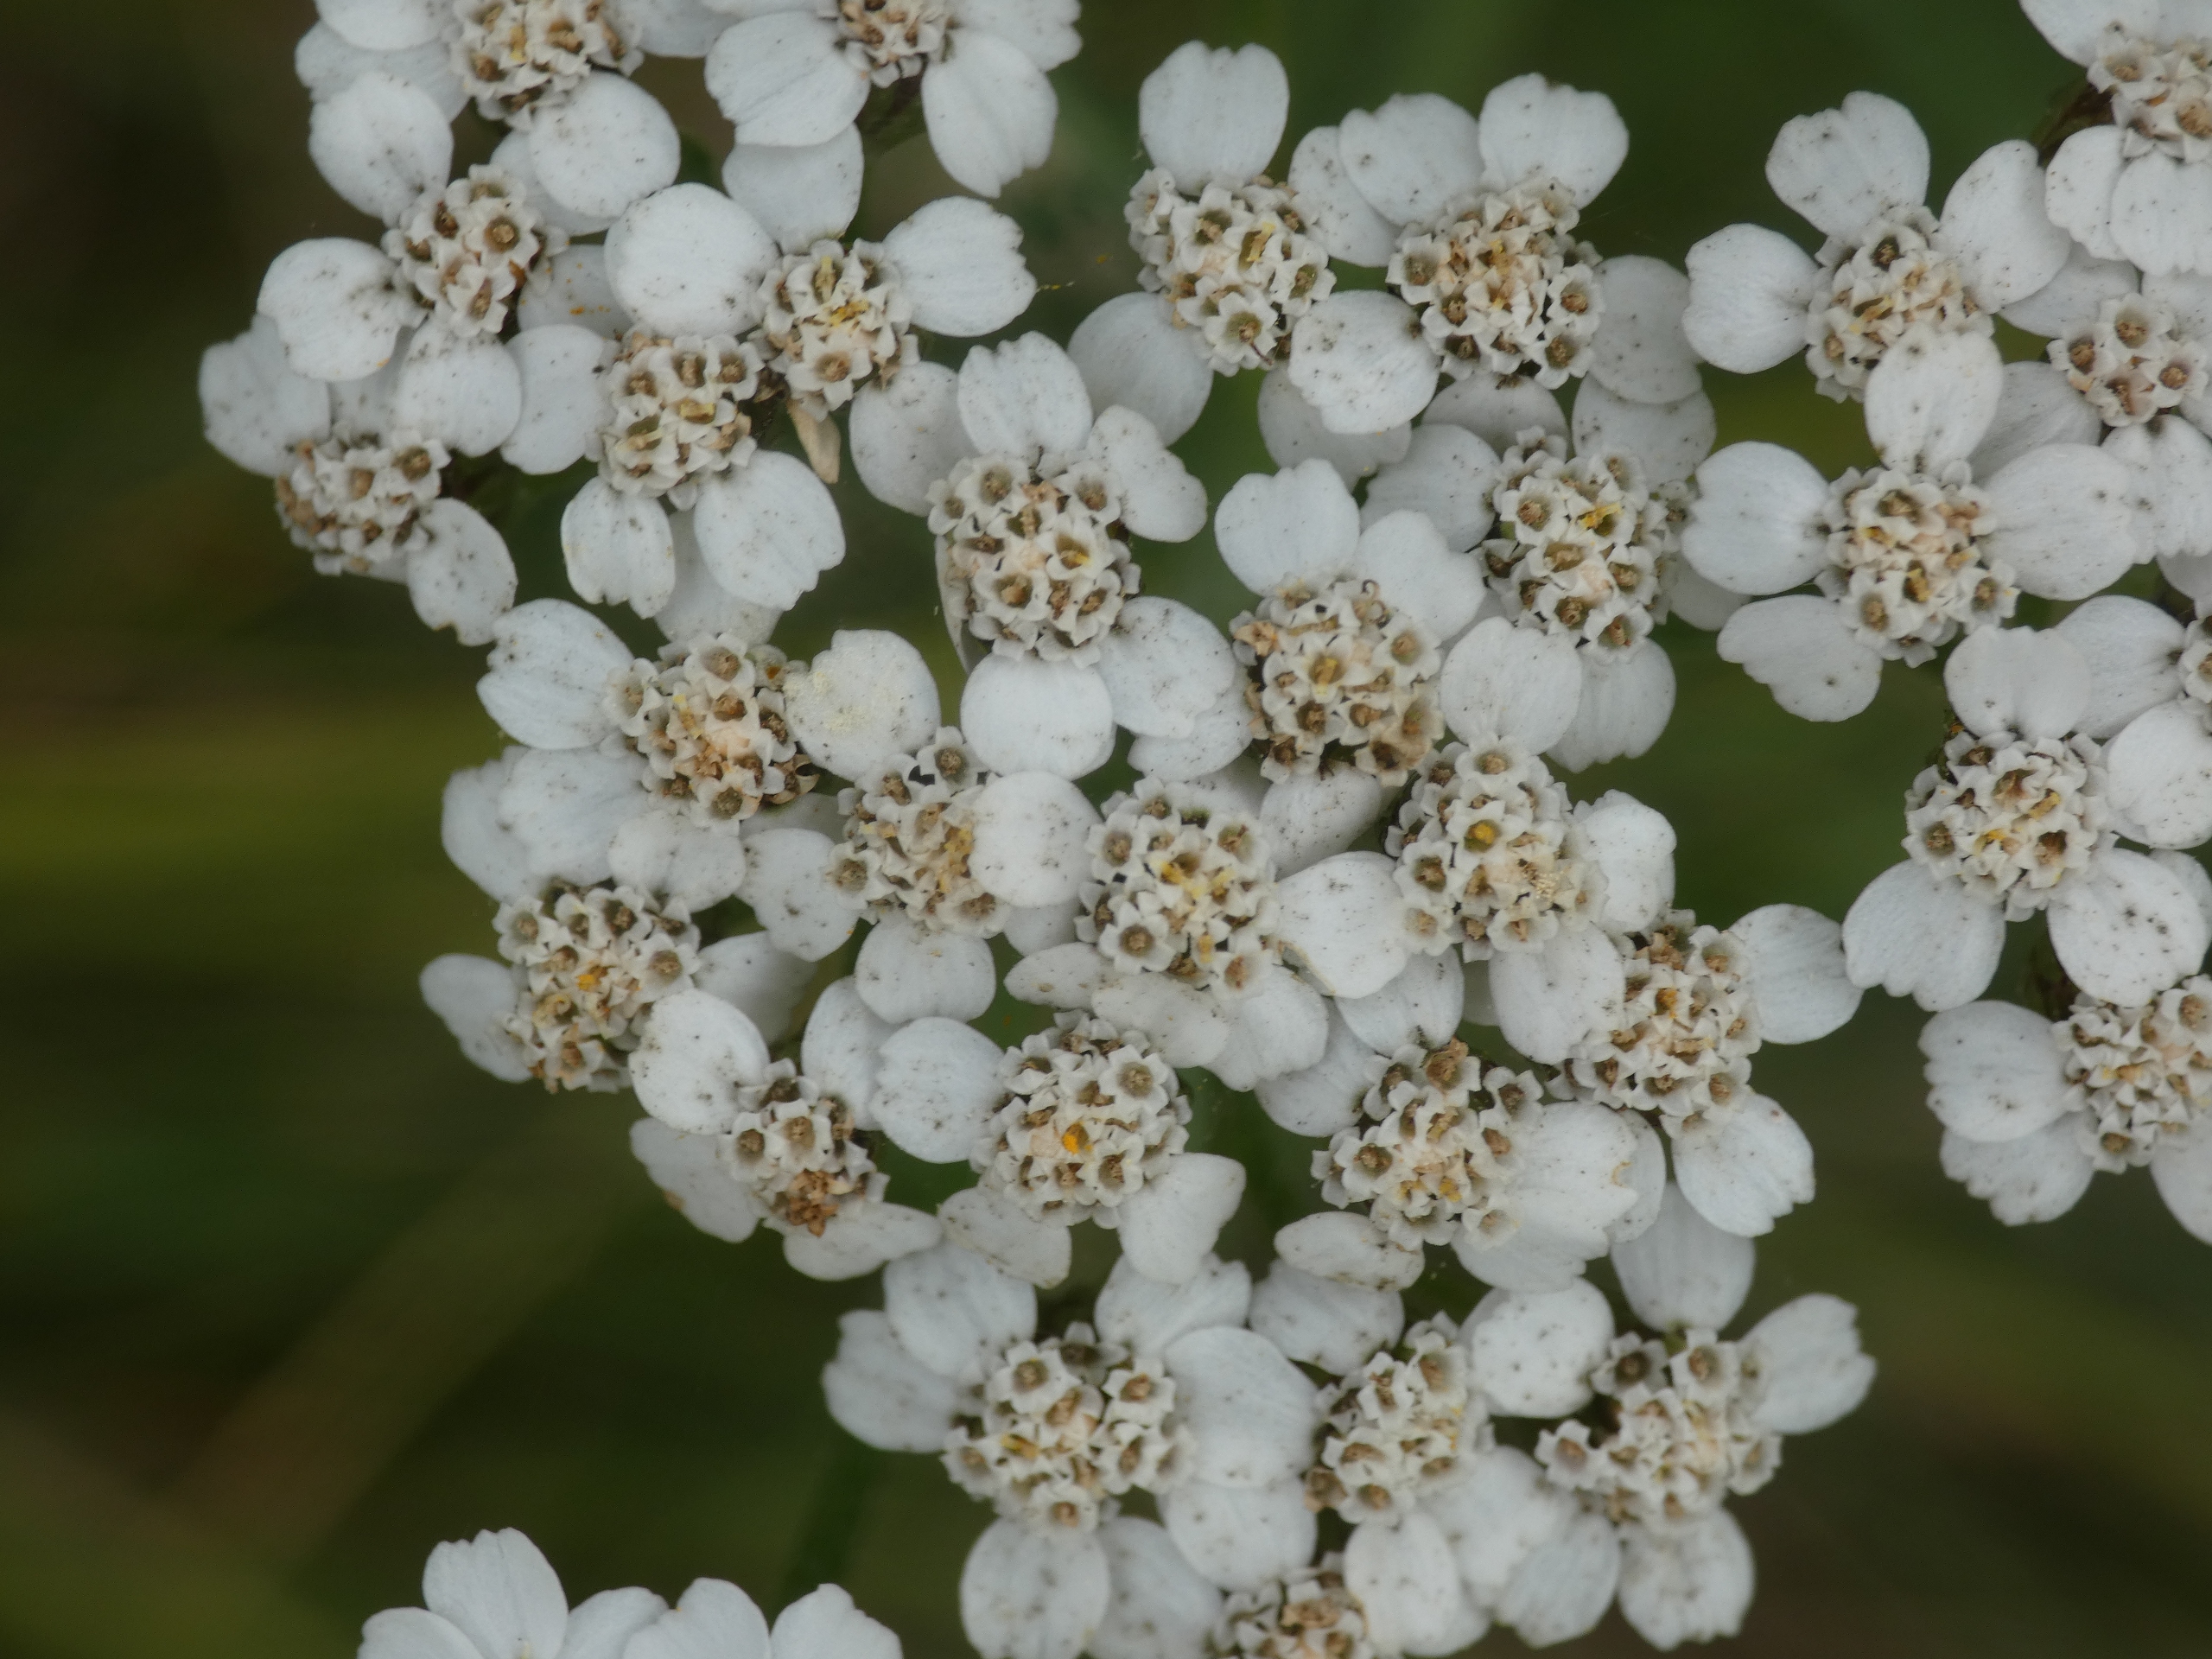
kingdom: Plantae
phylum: Tracheophyta
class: Magnoliopsida
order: Asterales
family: Asteraceae
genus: Achillea
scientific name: Achillea millefolium
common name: Almindelig røllike
